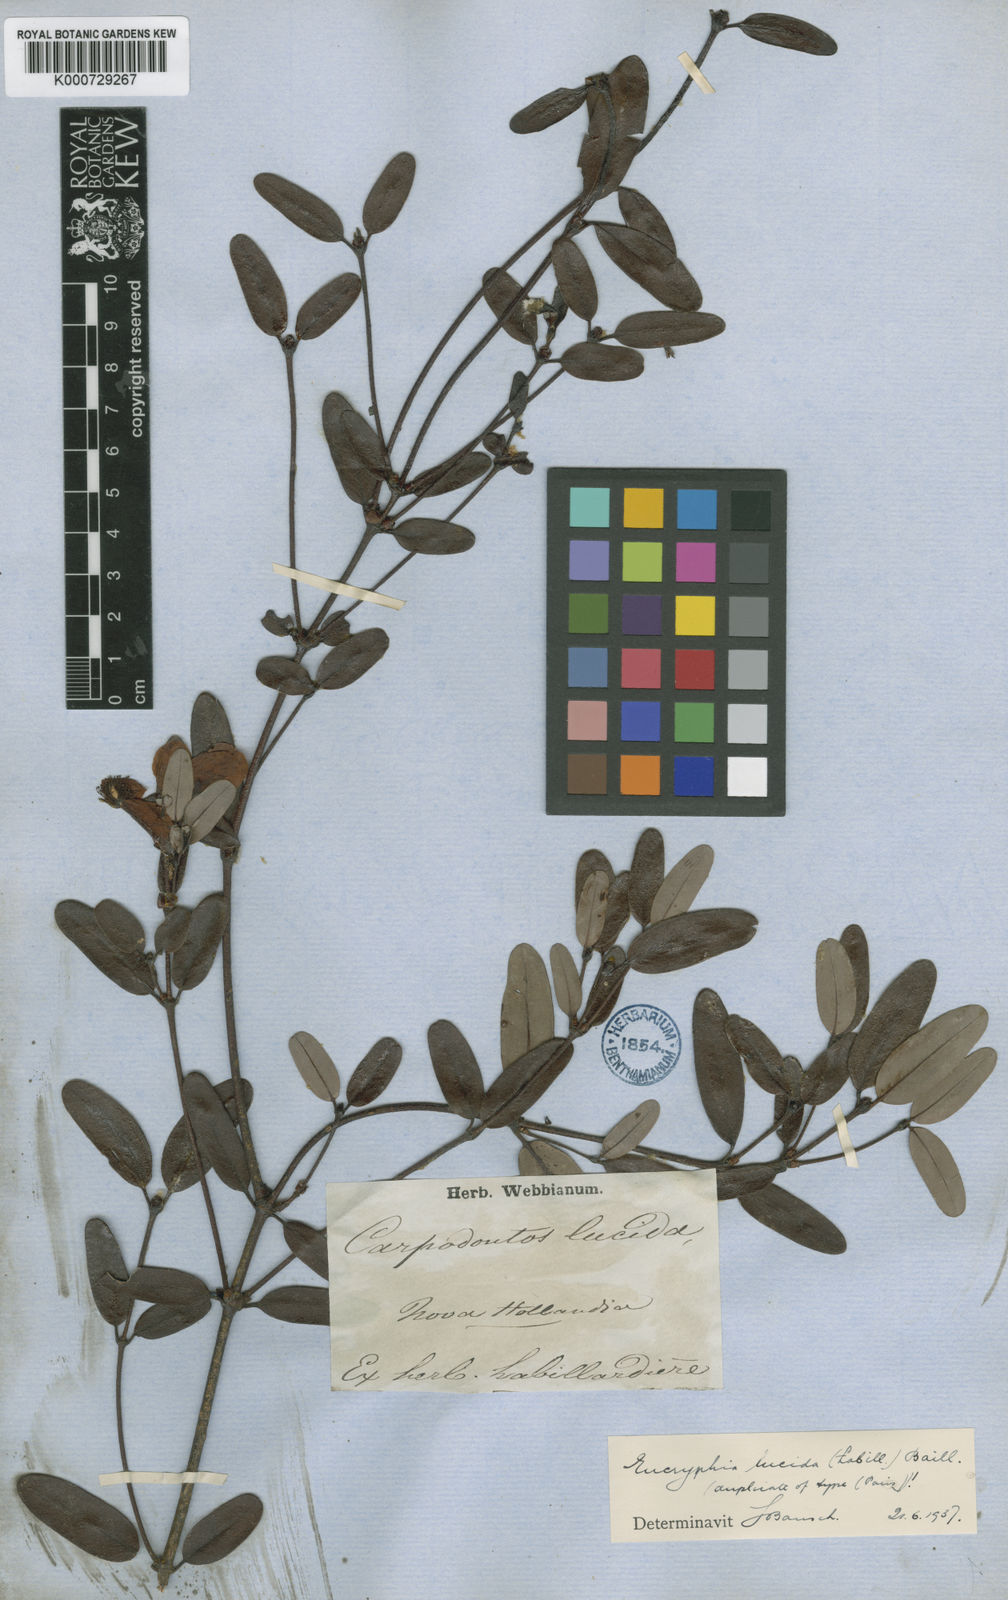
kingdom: Plantae
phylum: Tracheophyta
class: Magnoliopsida
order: Oxalidales
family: Cunoniaceae
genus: Eucryphia
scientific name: Eucryphia lucida
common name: Leatherwood
